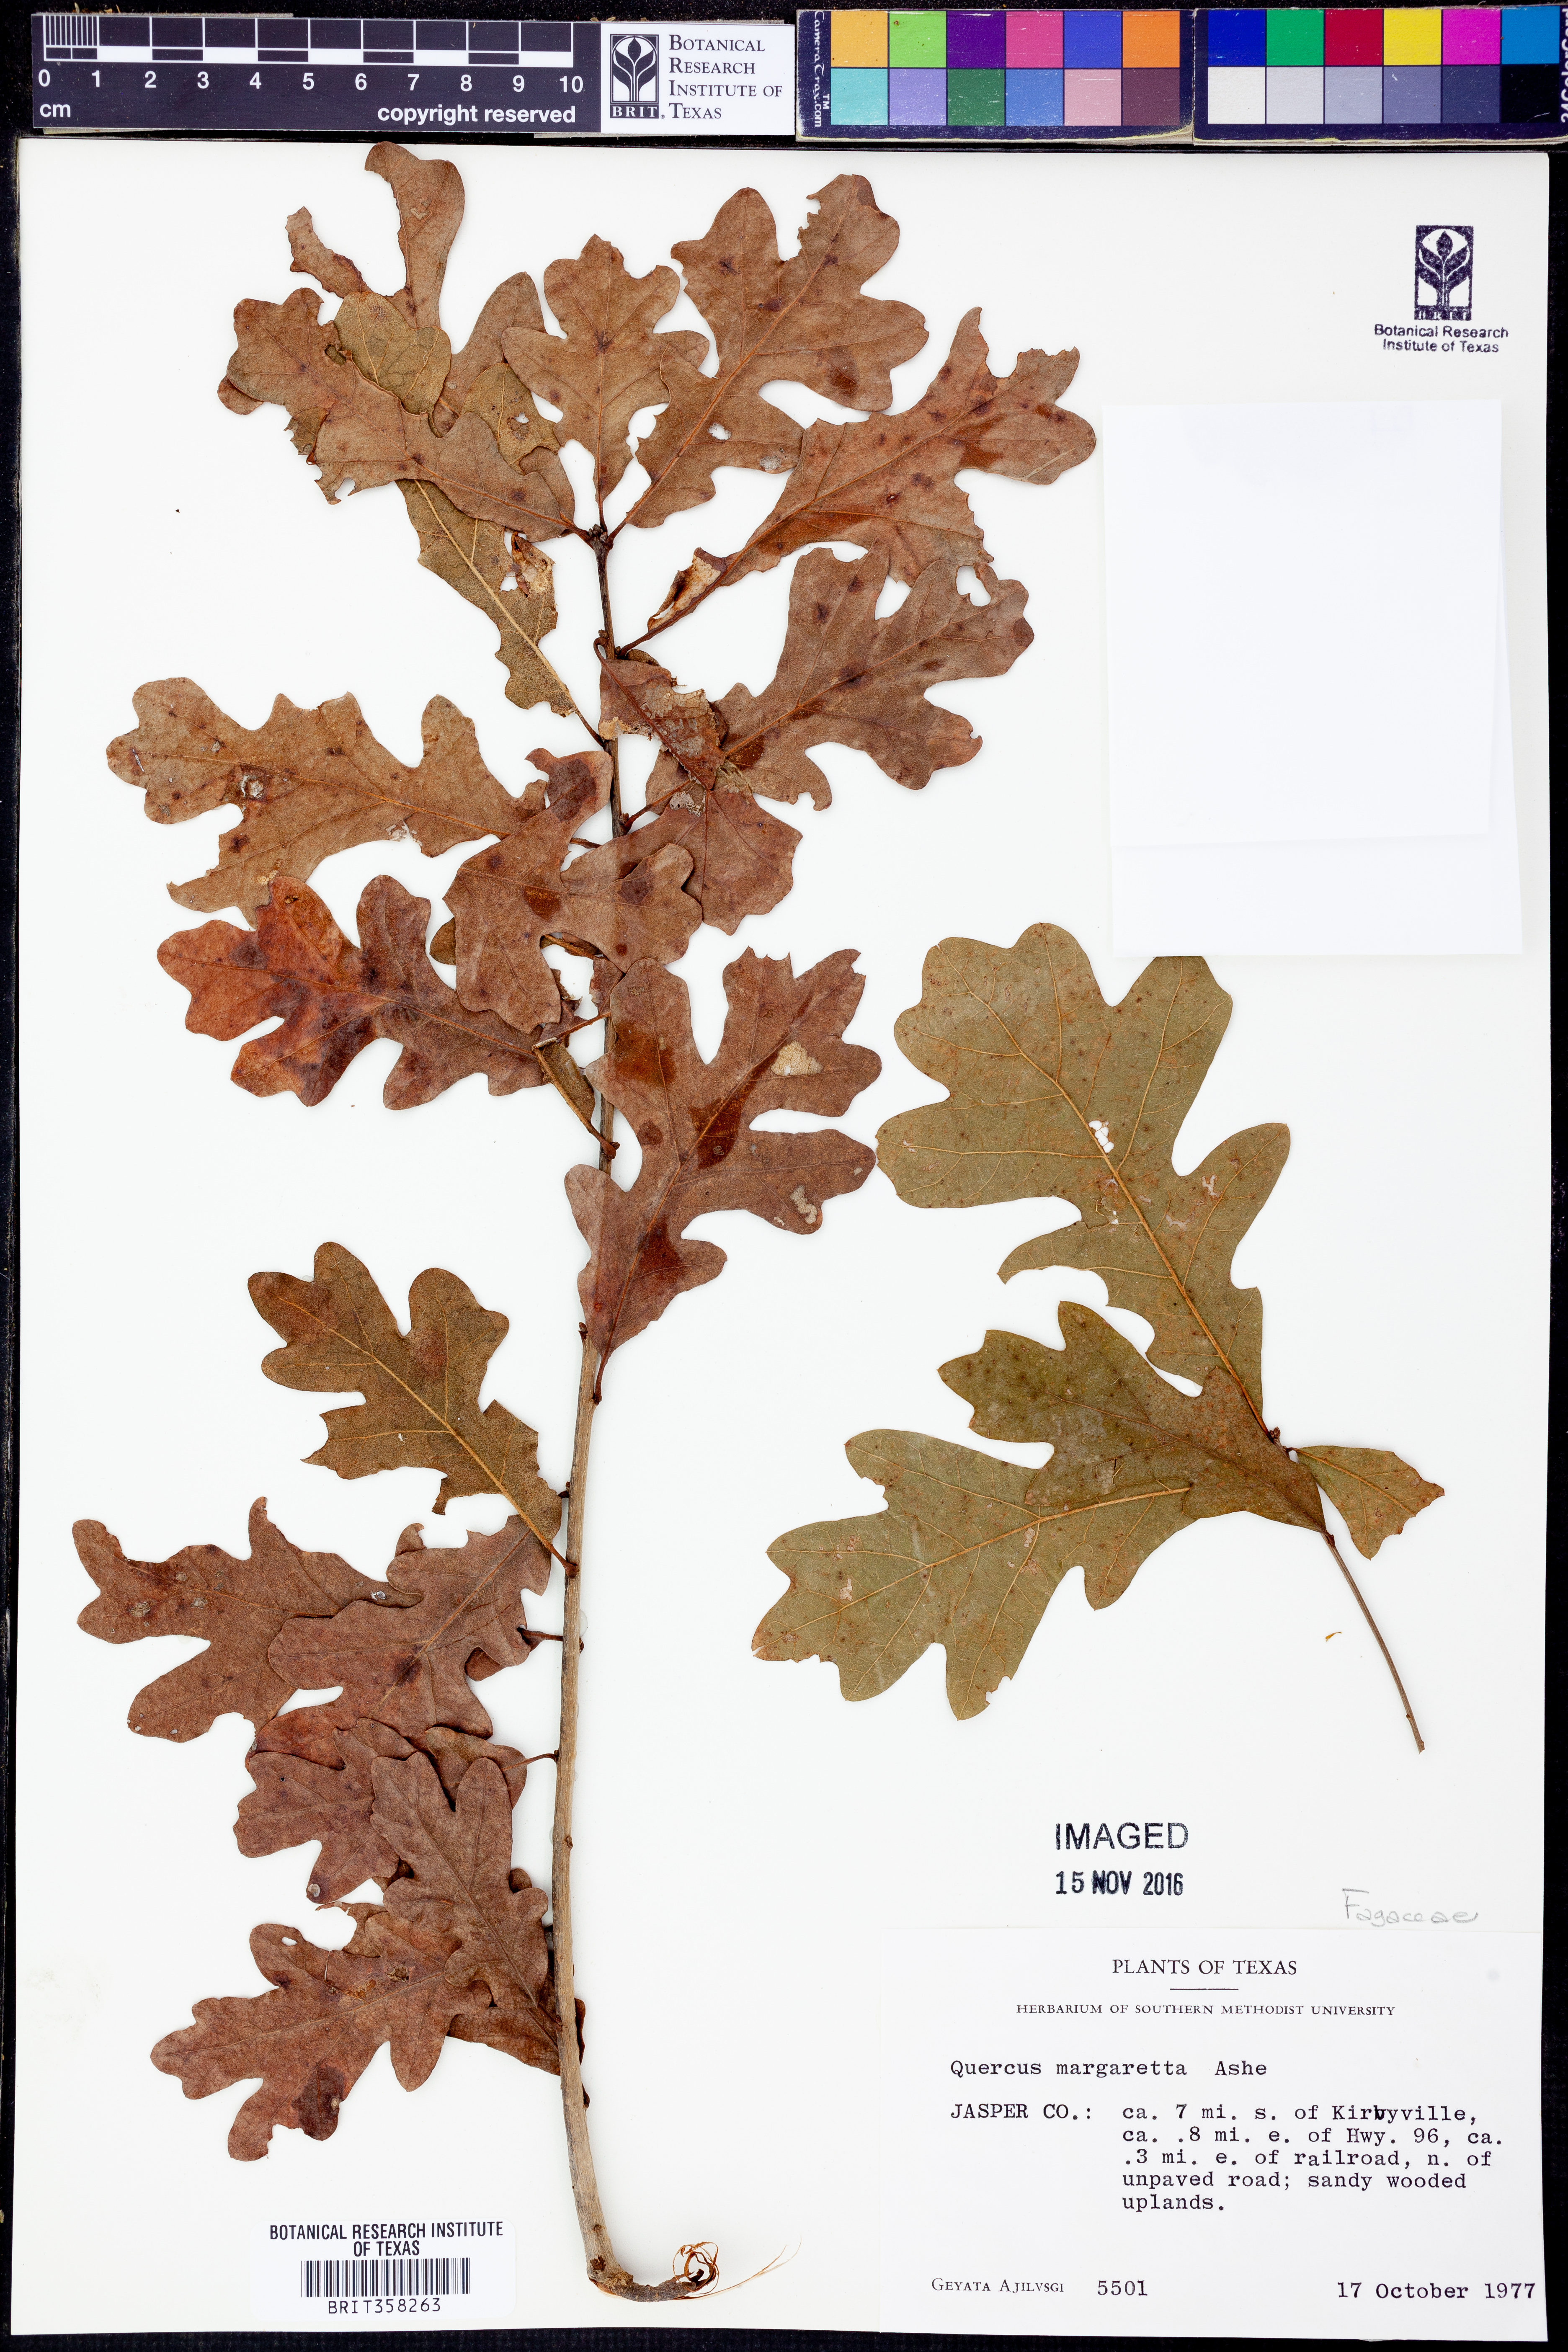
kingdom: Plantae
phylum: Tracheophyta
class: Magnoliopsida
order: Fagales
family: Fagaceae
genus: Quercus
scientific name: Quercus margaretta
